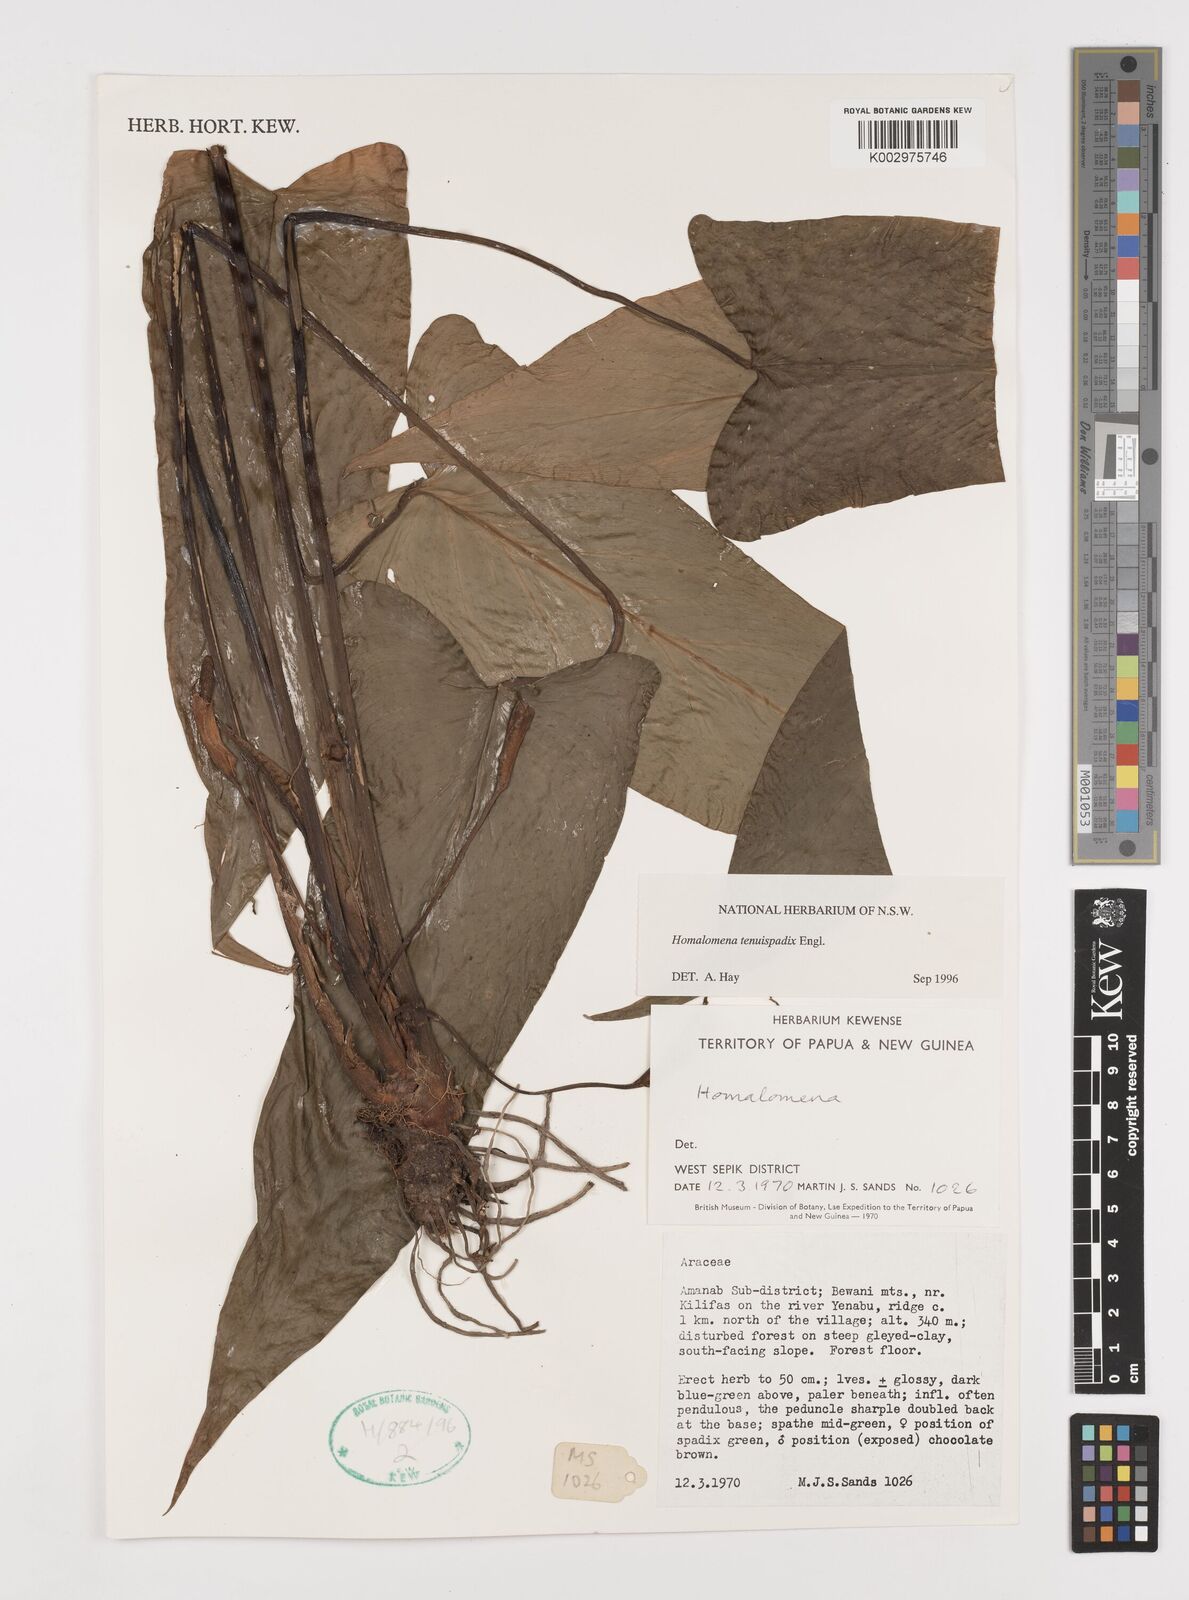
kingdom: Plantae
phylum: Tracheophyta
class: Liliopsida
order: Alismatales
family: Araceae
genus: Homalomena
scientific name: Homalomena tenuispadix
